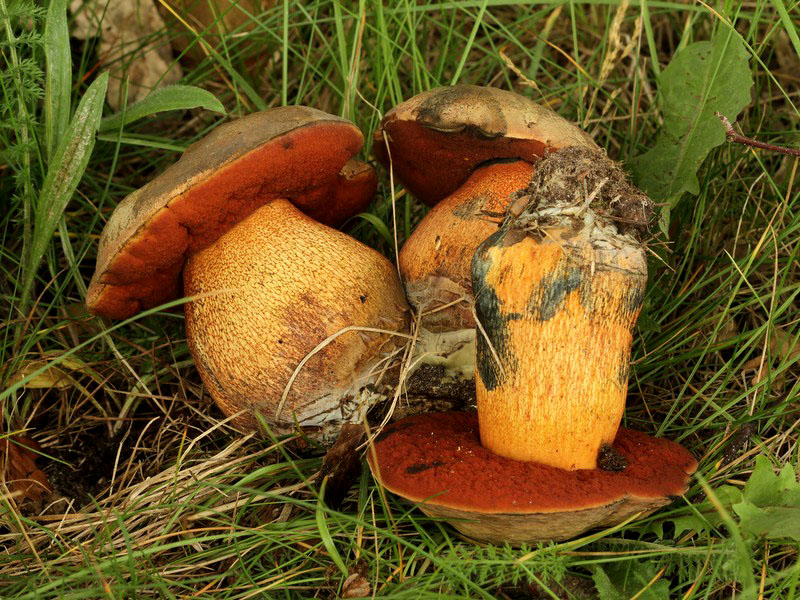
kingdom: Fungi
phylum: Basidiomycota
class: Agaricomycetes
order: Boletales
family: Boletaceae
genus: Suillellus
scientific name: Suillellus luridus
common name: netstokket indigorørhat
